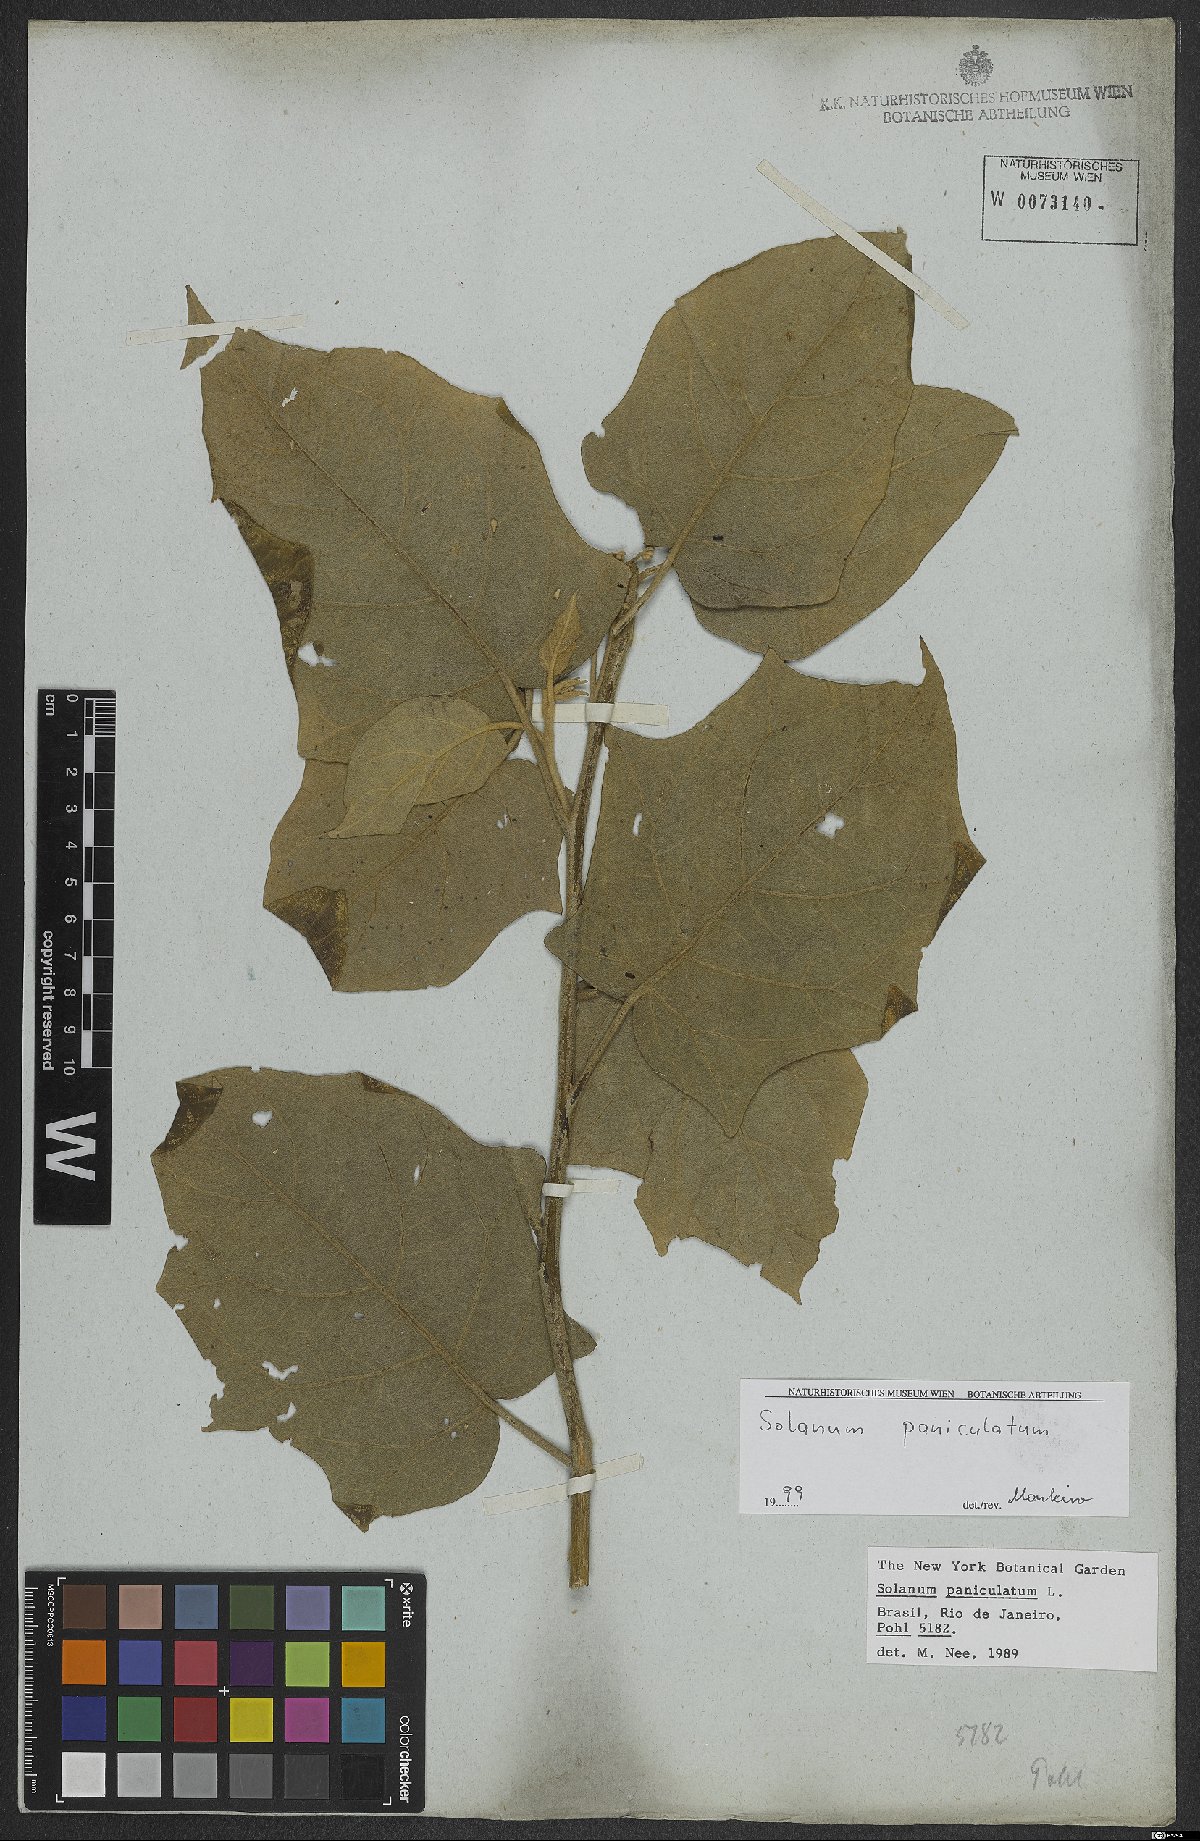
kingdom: Plantae
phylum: Tracheophyta
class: Magnoliopsida
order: Solanales
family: Solanaceae
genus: Solanum
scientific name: Solanum paniculatum
